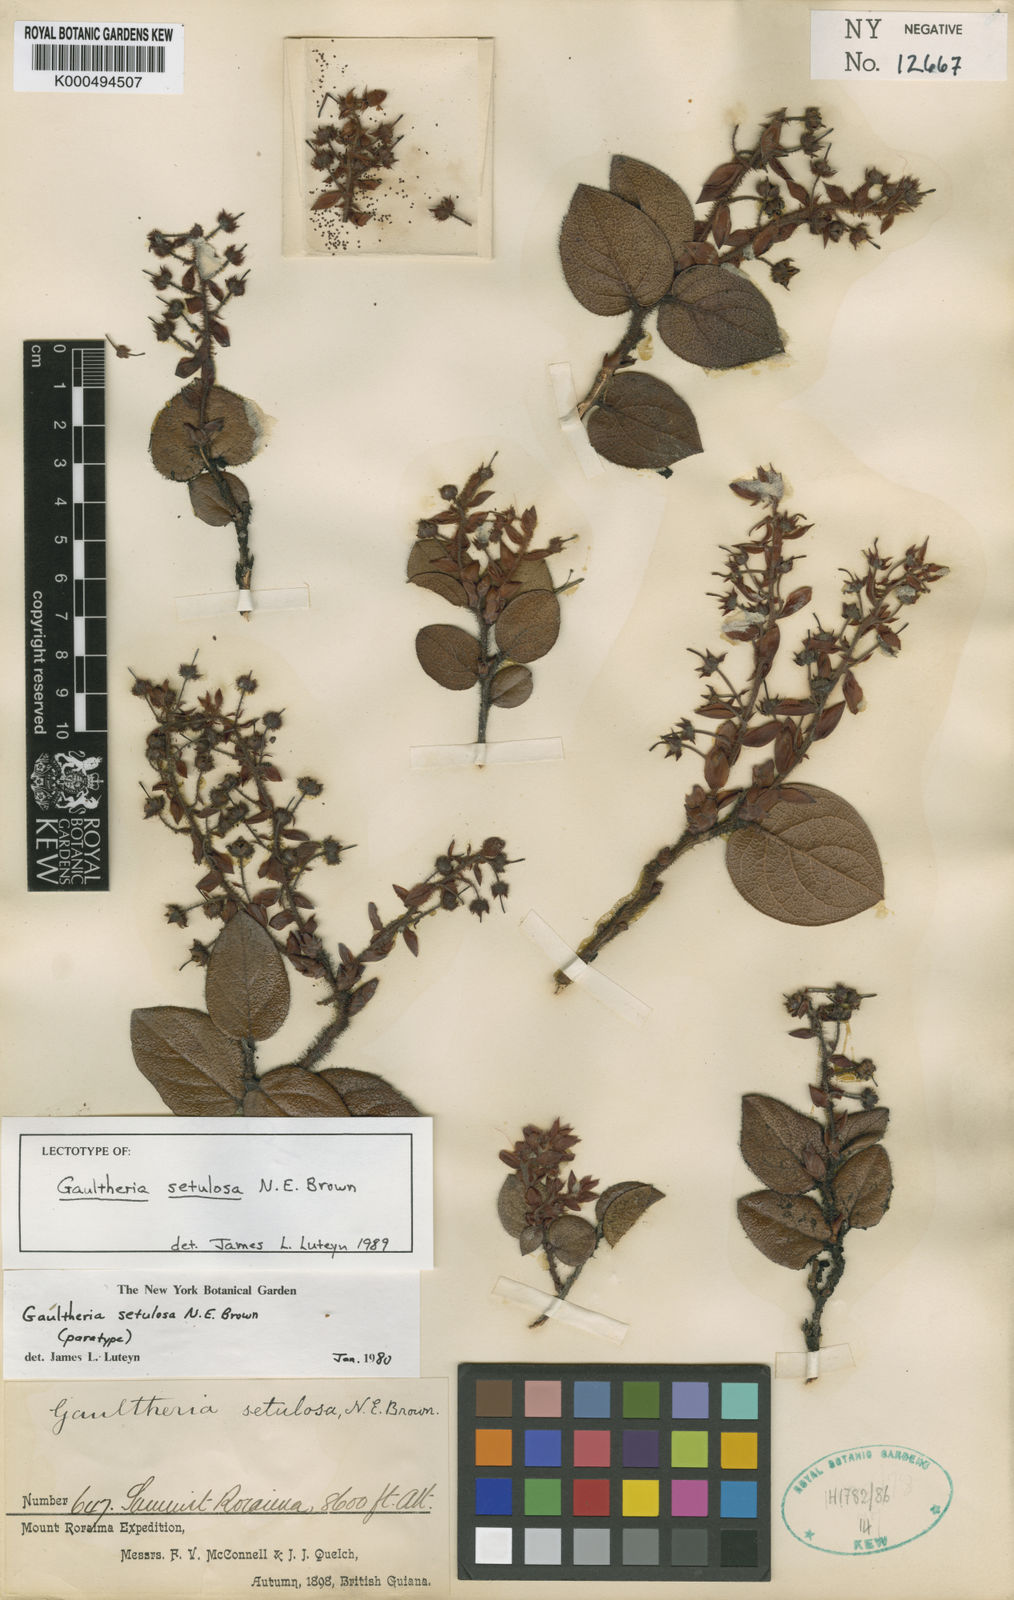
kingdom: Plantae
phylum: Tracheophyta
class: Magnoliopsida
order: Ericales
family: Ericaceae
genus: Gaultheria
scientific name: Gaultheria setulosa
